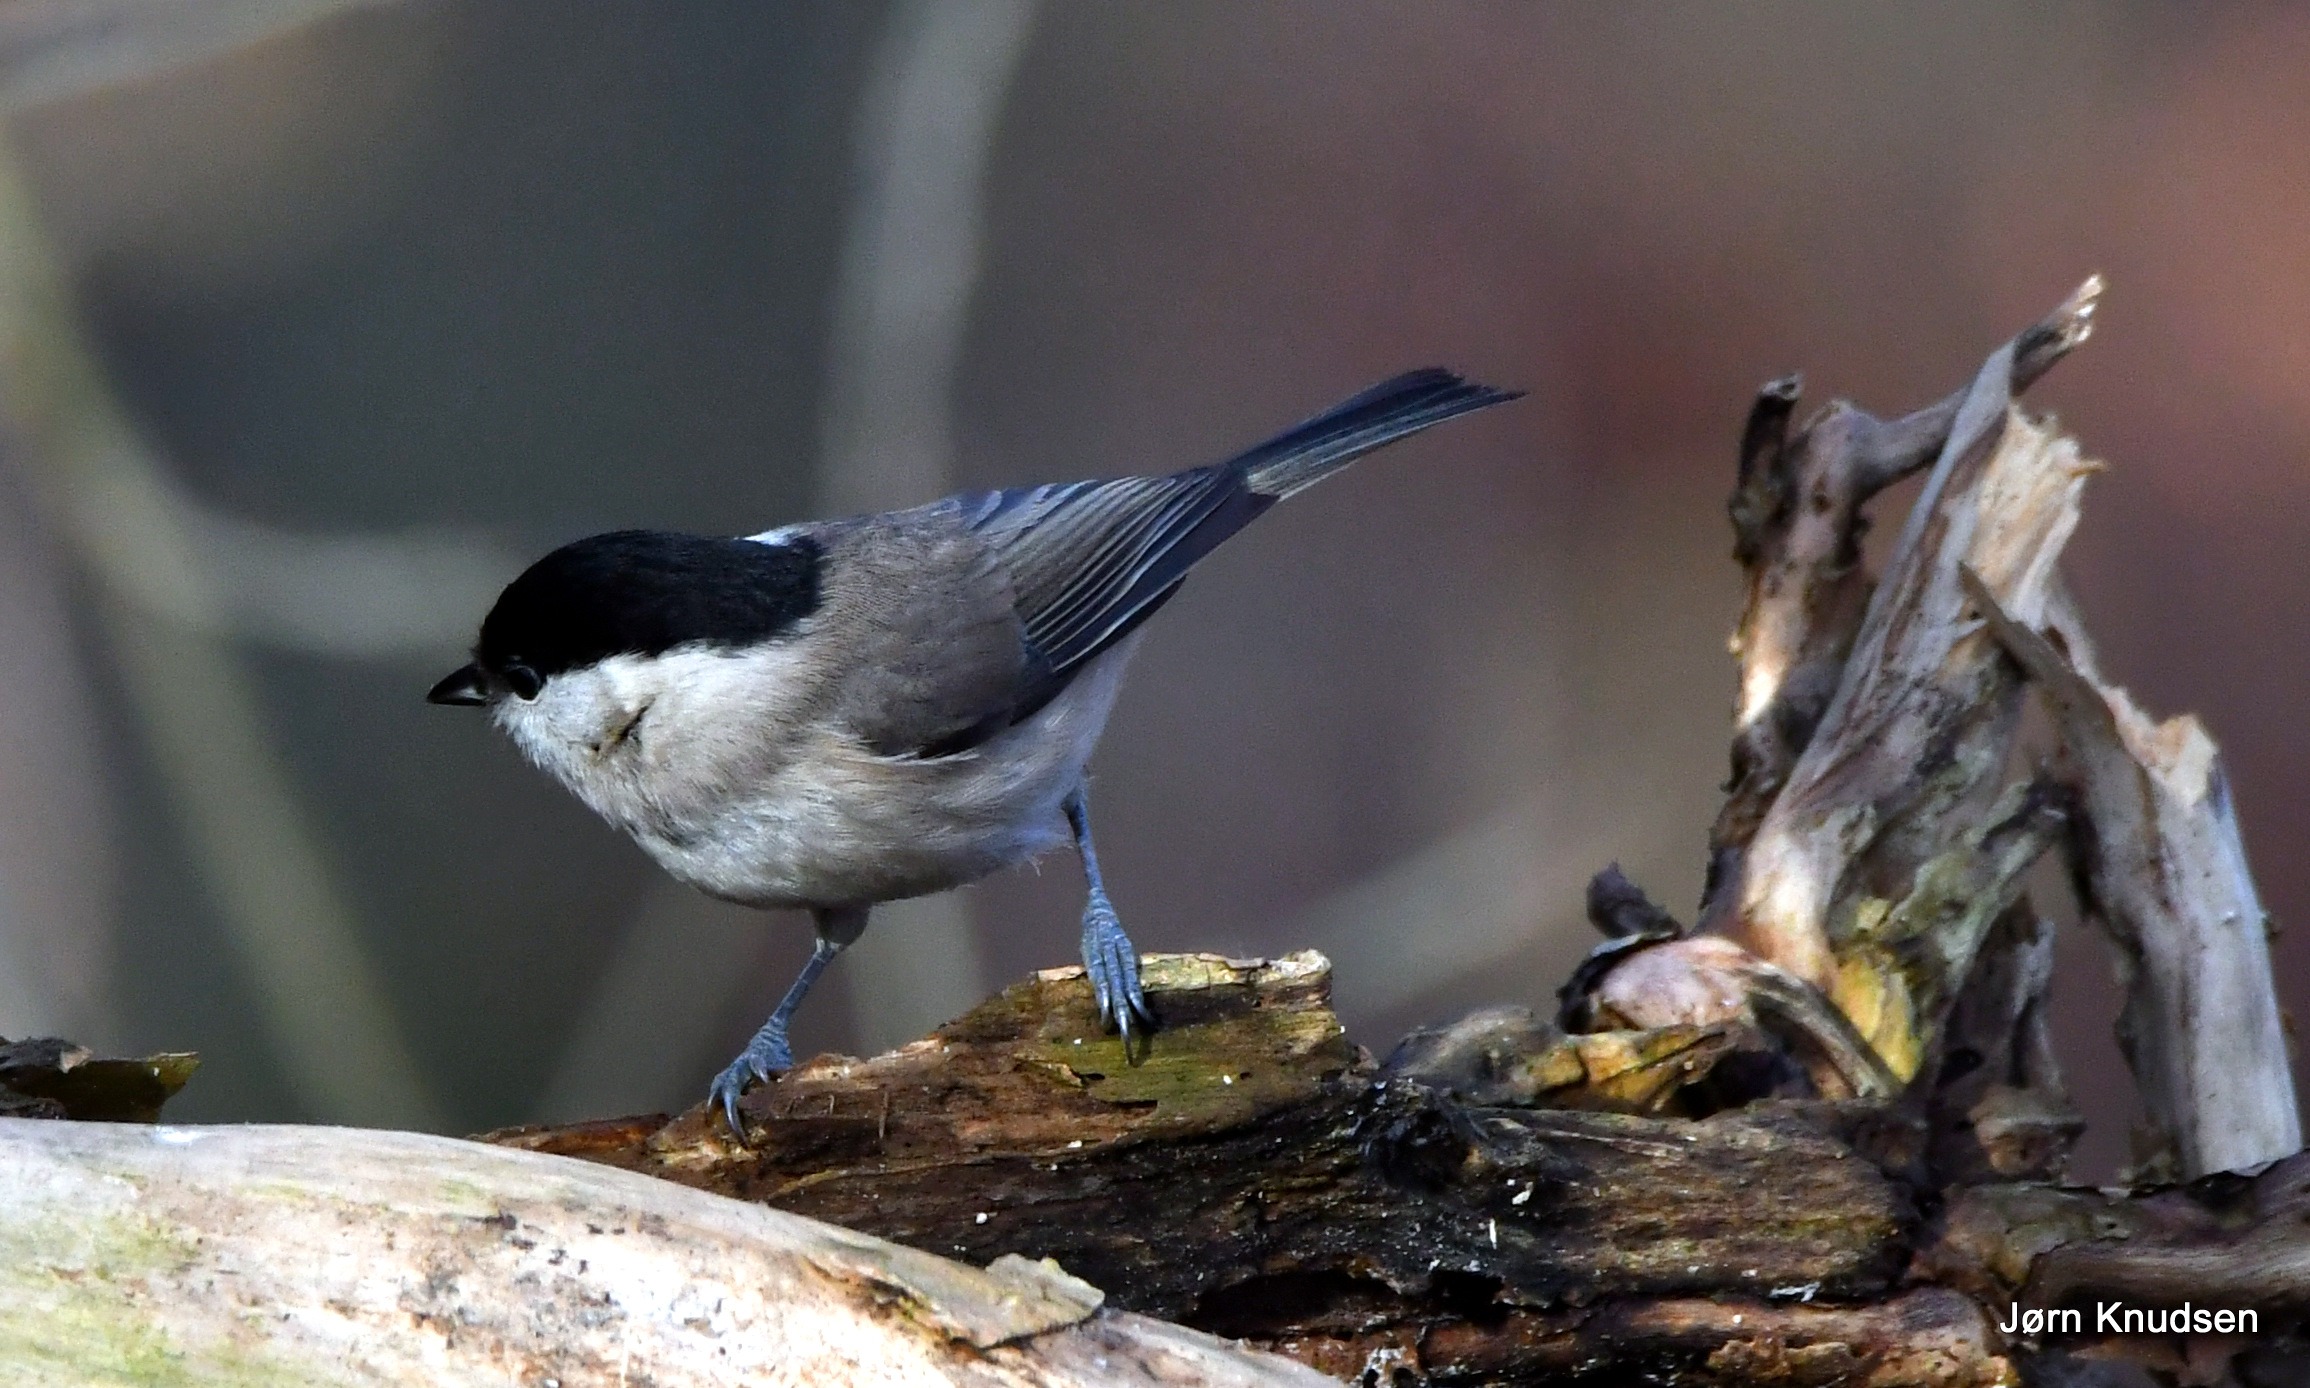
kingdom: Animalia
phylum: Chordata
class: Aves
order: Passeriformes
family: Paridae
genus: Poecile
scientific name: Poecile palustris
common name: Sumpmejse
